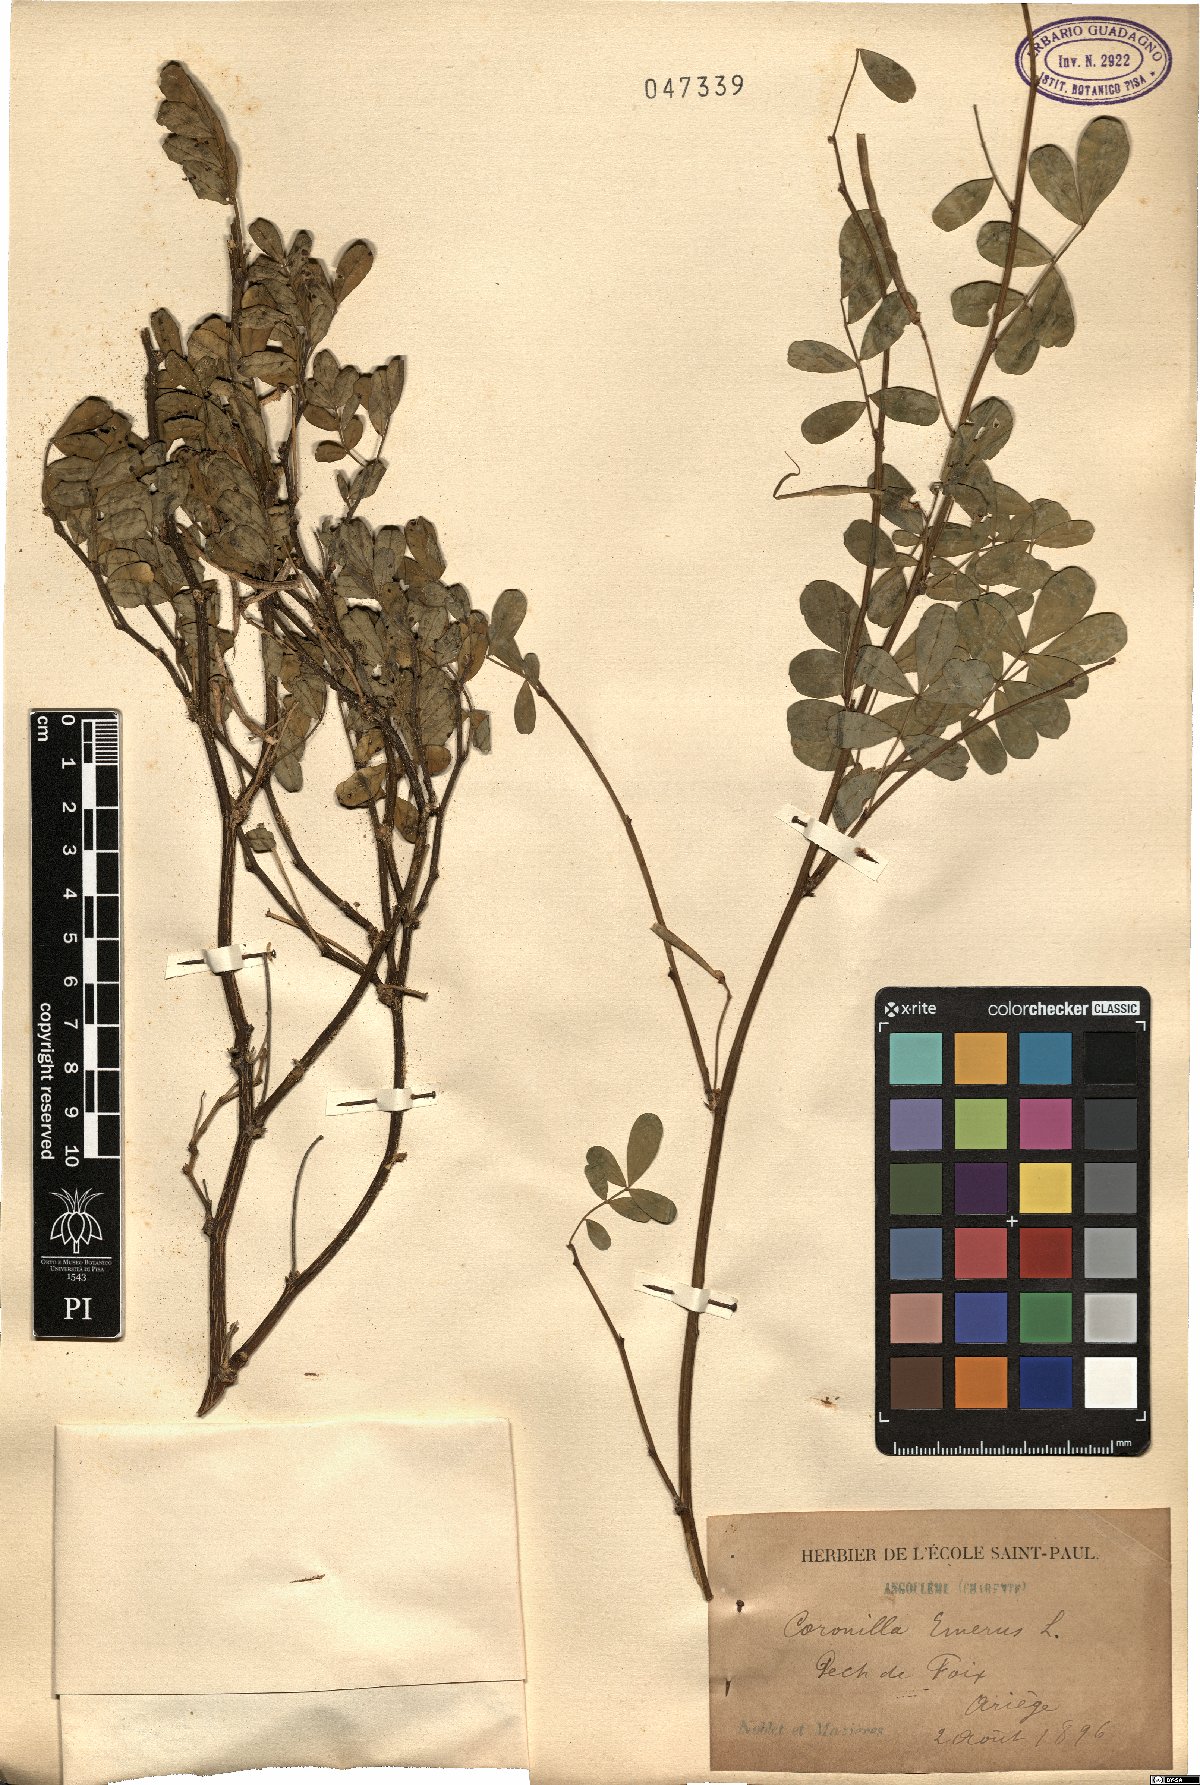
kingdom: Plantae
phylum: Tracheophyta
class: Magnoliopsida
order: Fabales
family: Fabaceae
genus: Hippocrepis
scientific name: Hippocrepis emerus
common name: Scorpion senna
